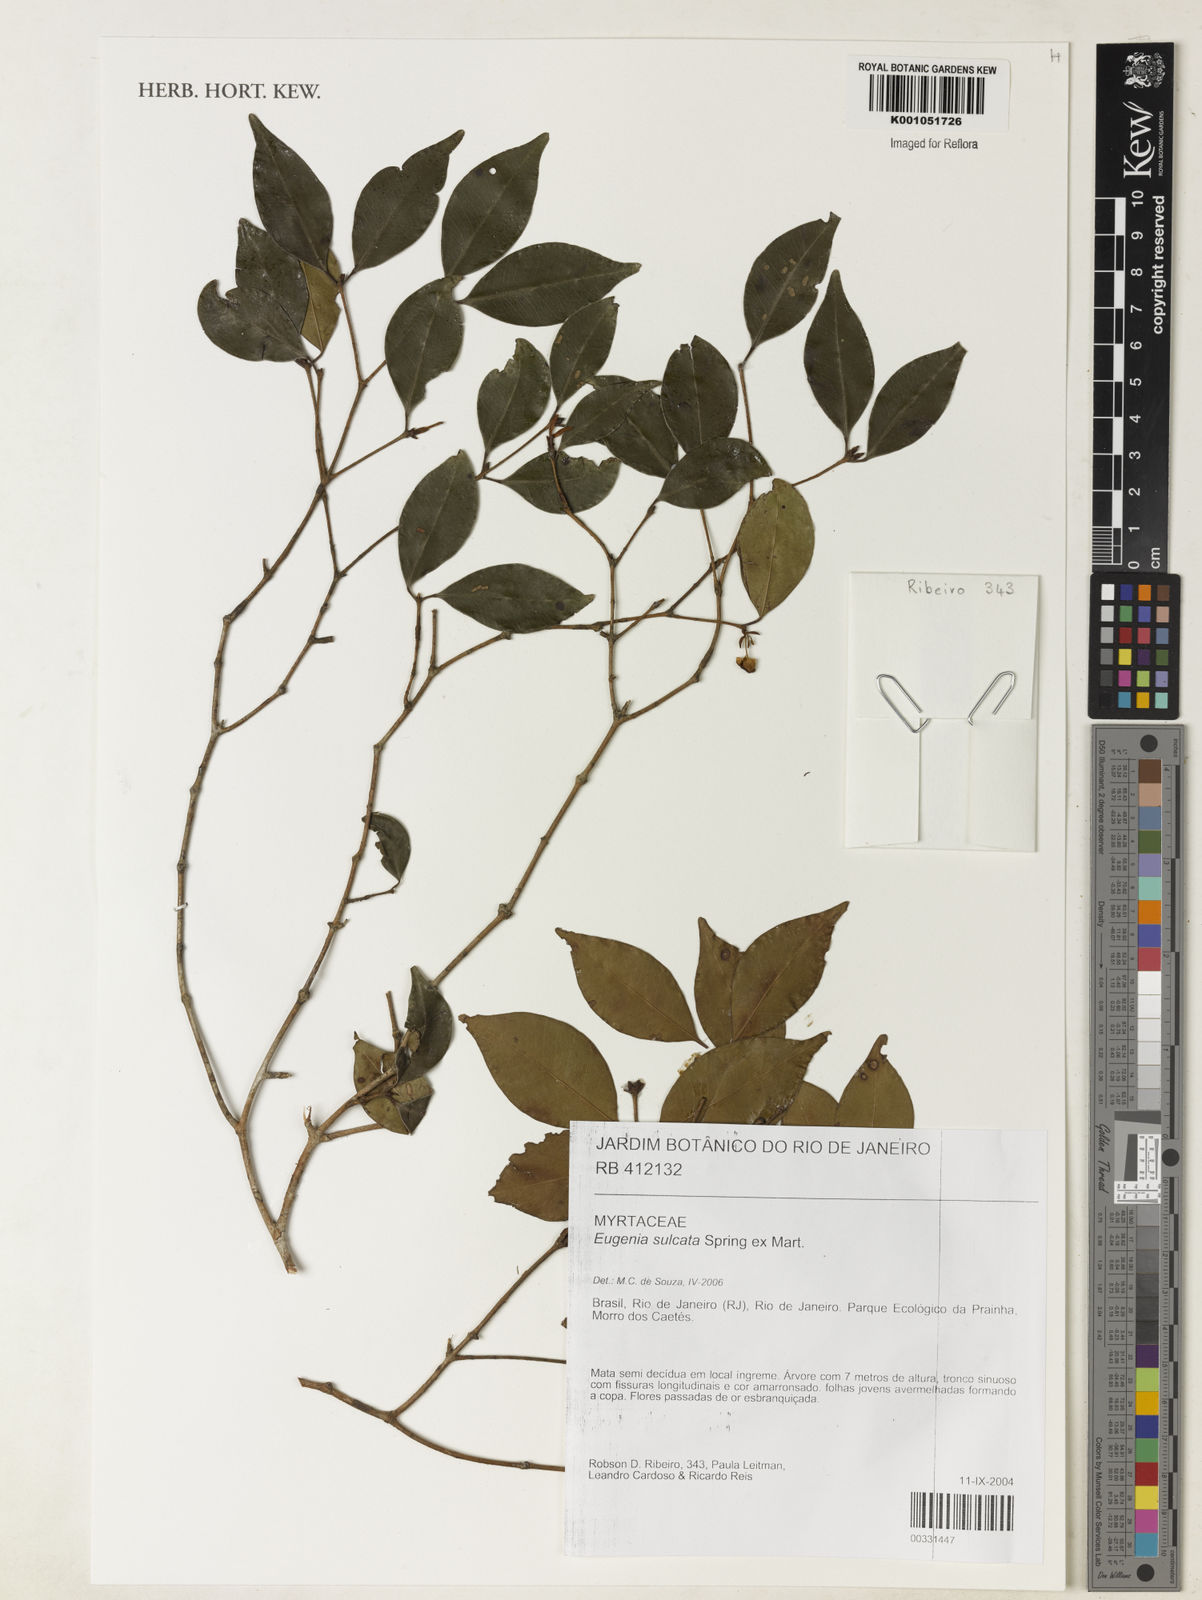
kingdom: Plantae
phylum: Tracheophyta
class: Magnoliopsida
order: Myrtales
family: Myrtaceae
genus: Eugenia
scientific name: Eugenia sulcata
